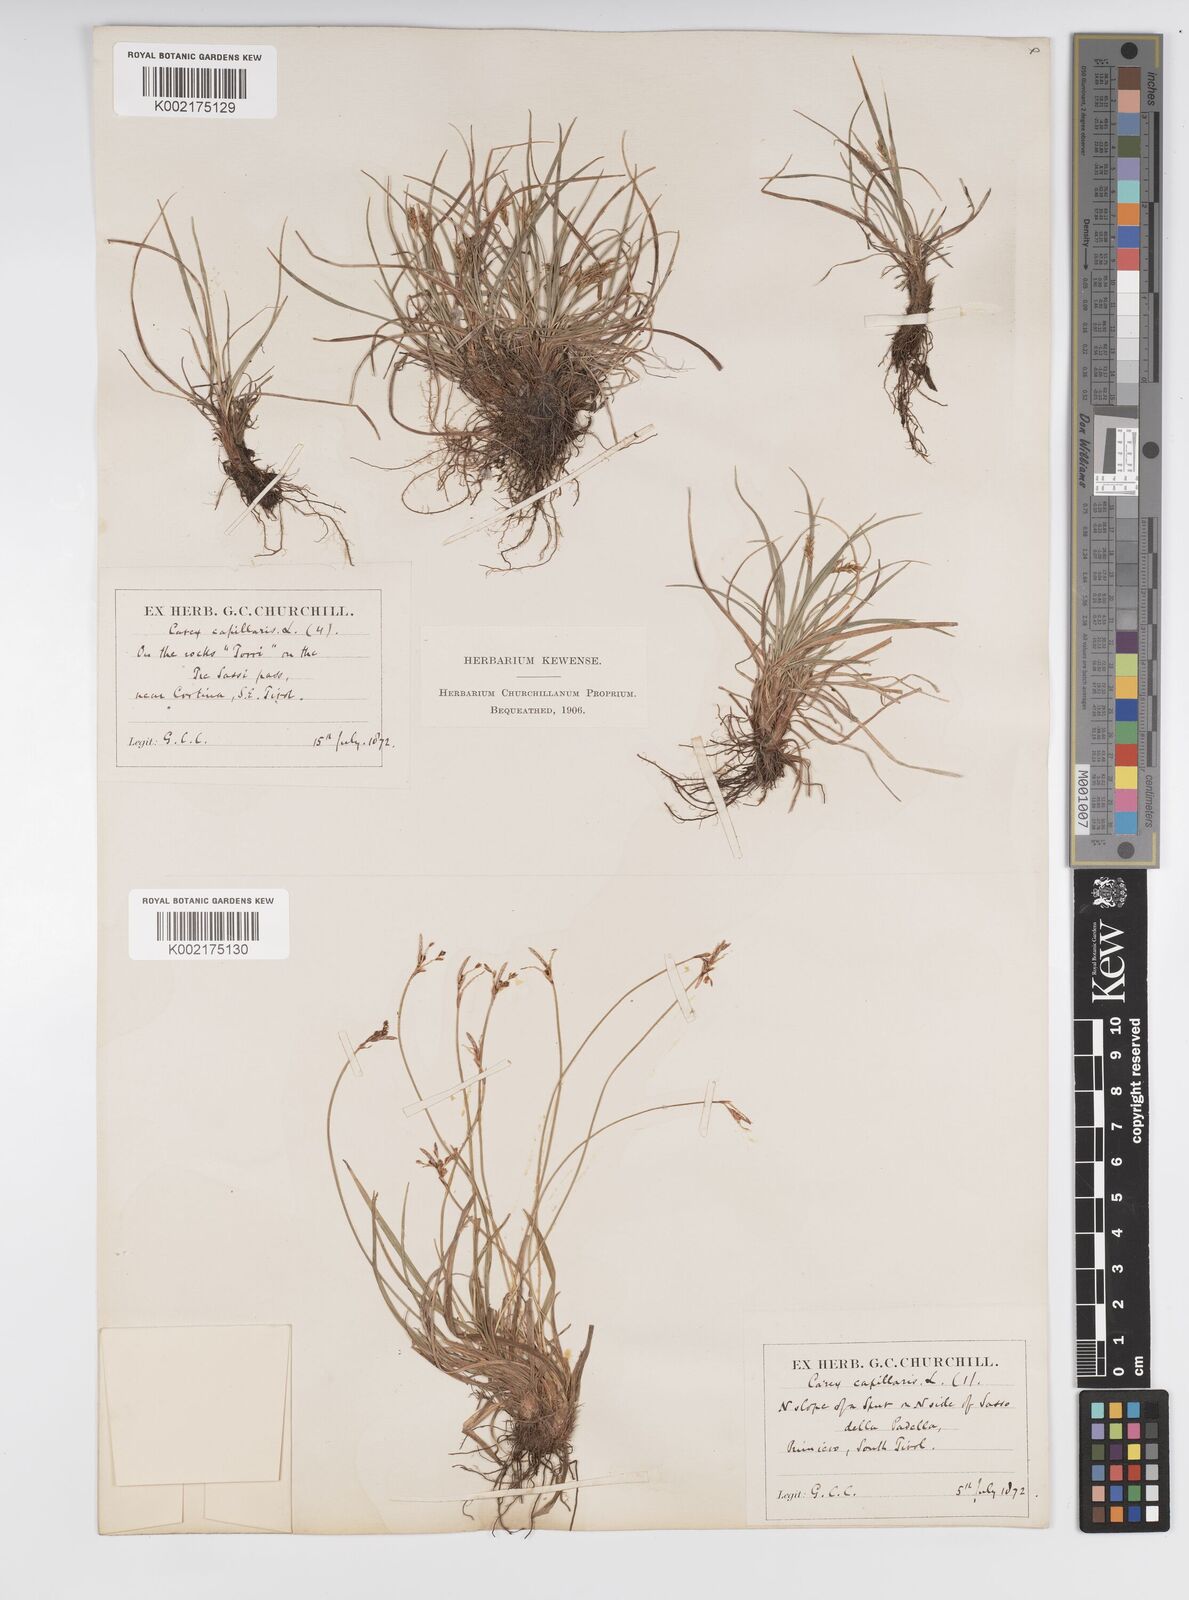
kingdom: Plantae
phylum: Tracheophyta
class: Liliopsida
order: Poales
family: Cyperaceae
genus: Carex
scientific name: Carex capillaris
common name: Hair sedge
